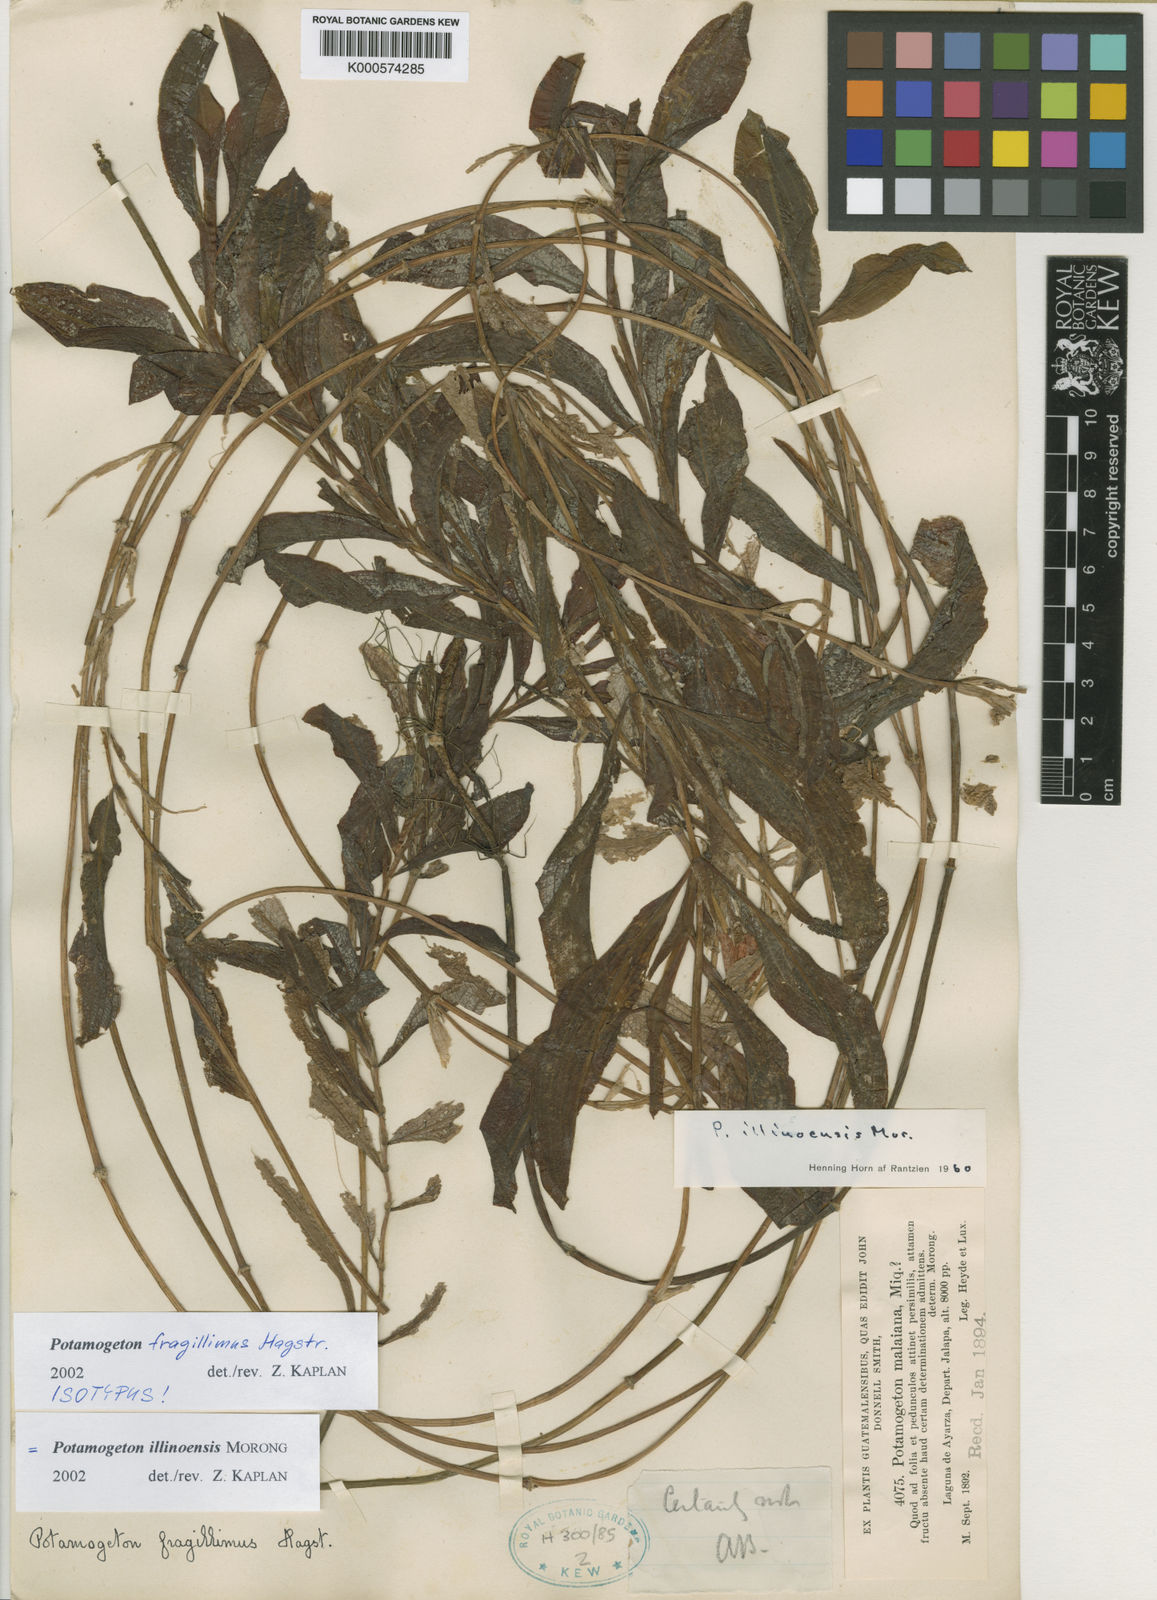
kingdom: Plantae
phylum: Tracheophyta
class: Liliopsida
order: Alismatales
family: Potamogetonaceae
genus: Potamogeton
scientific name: Potamogeton illinoensis
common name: Illinois pondweed
